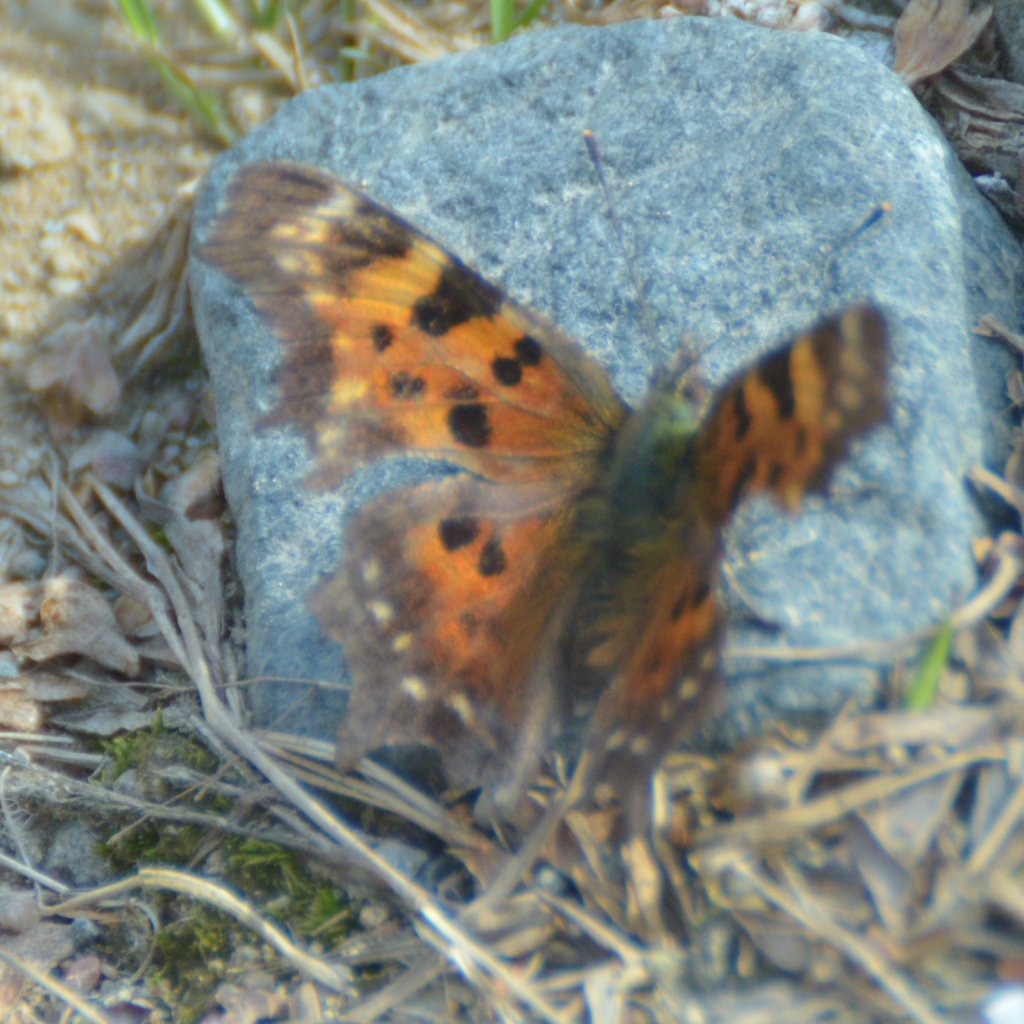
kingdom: Animalia
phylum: Arthropoda
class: Insecta
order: Lepidoptera
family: Nymphalidae
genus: Polygonia
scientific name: Polygonia faunus
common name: Green Comma
